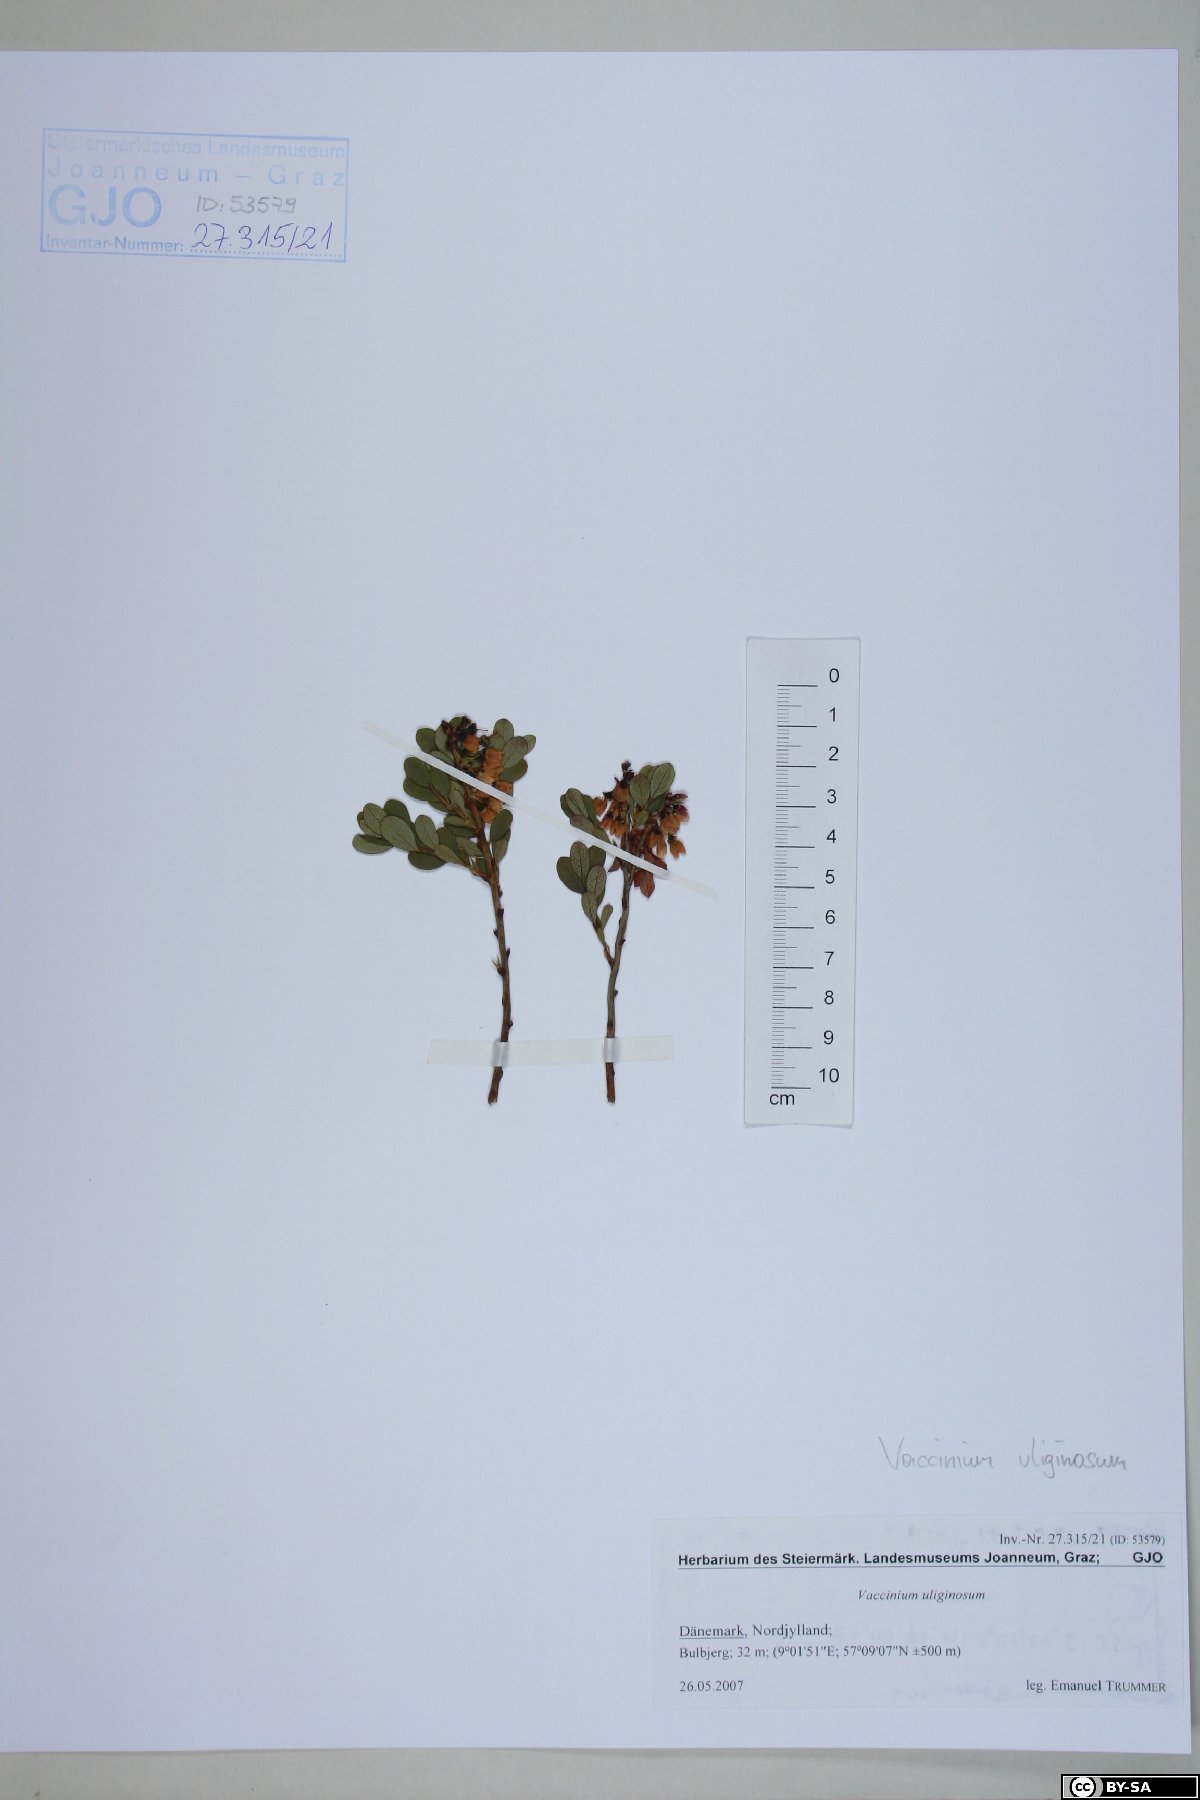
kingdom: Plantae
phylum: Tracheophyta
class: Magnoliopsida
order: Ericales
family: Ericaceae
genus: Vaccinium
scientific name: Vaccinium uliginosum
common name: Bog bilberry
